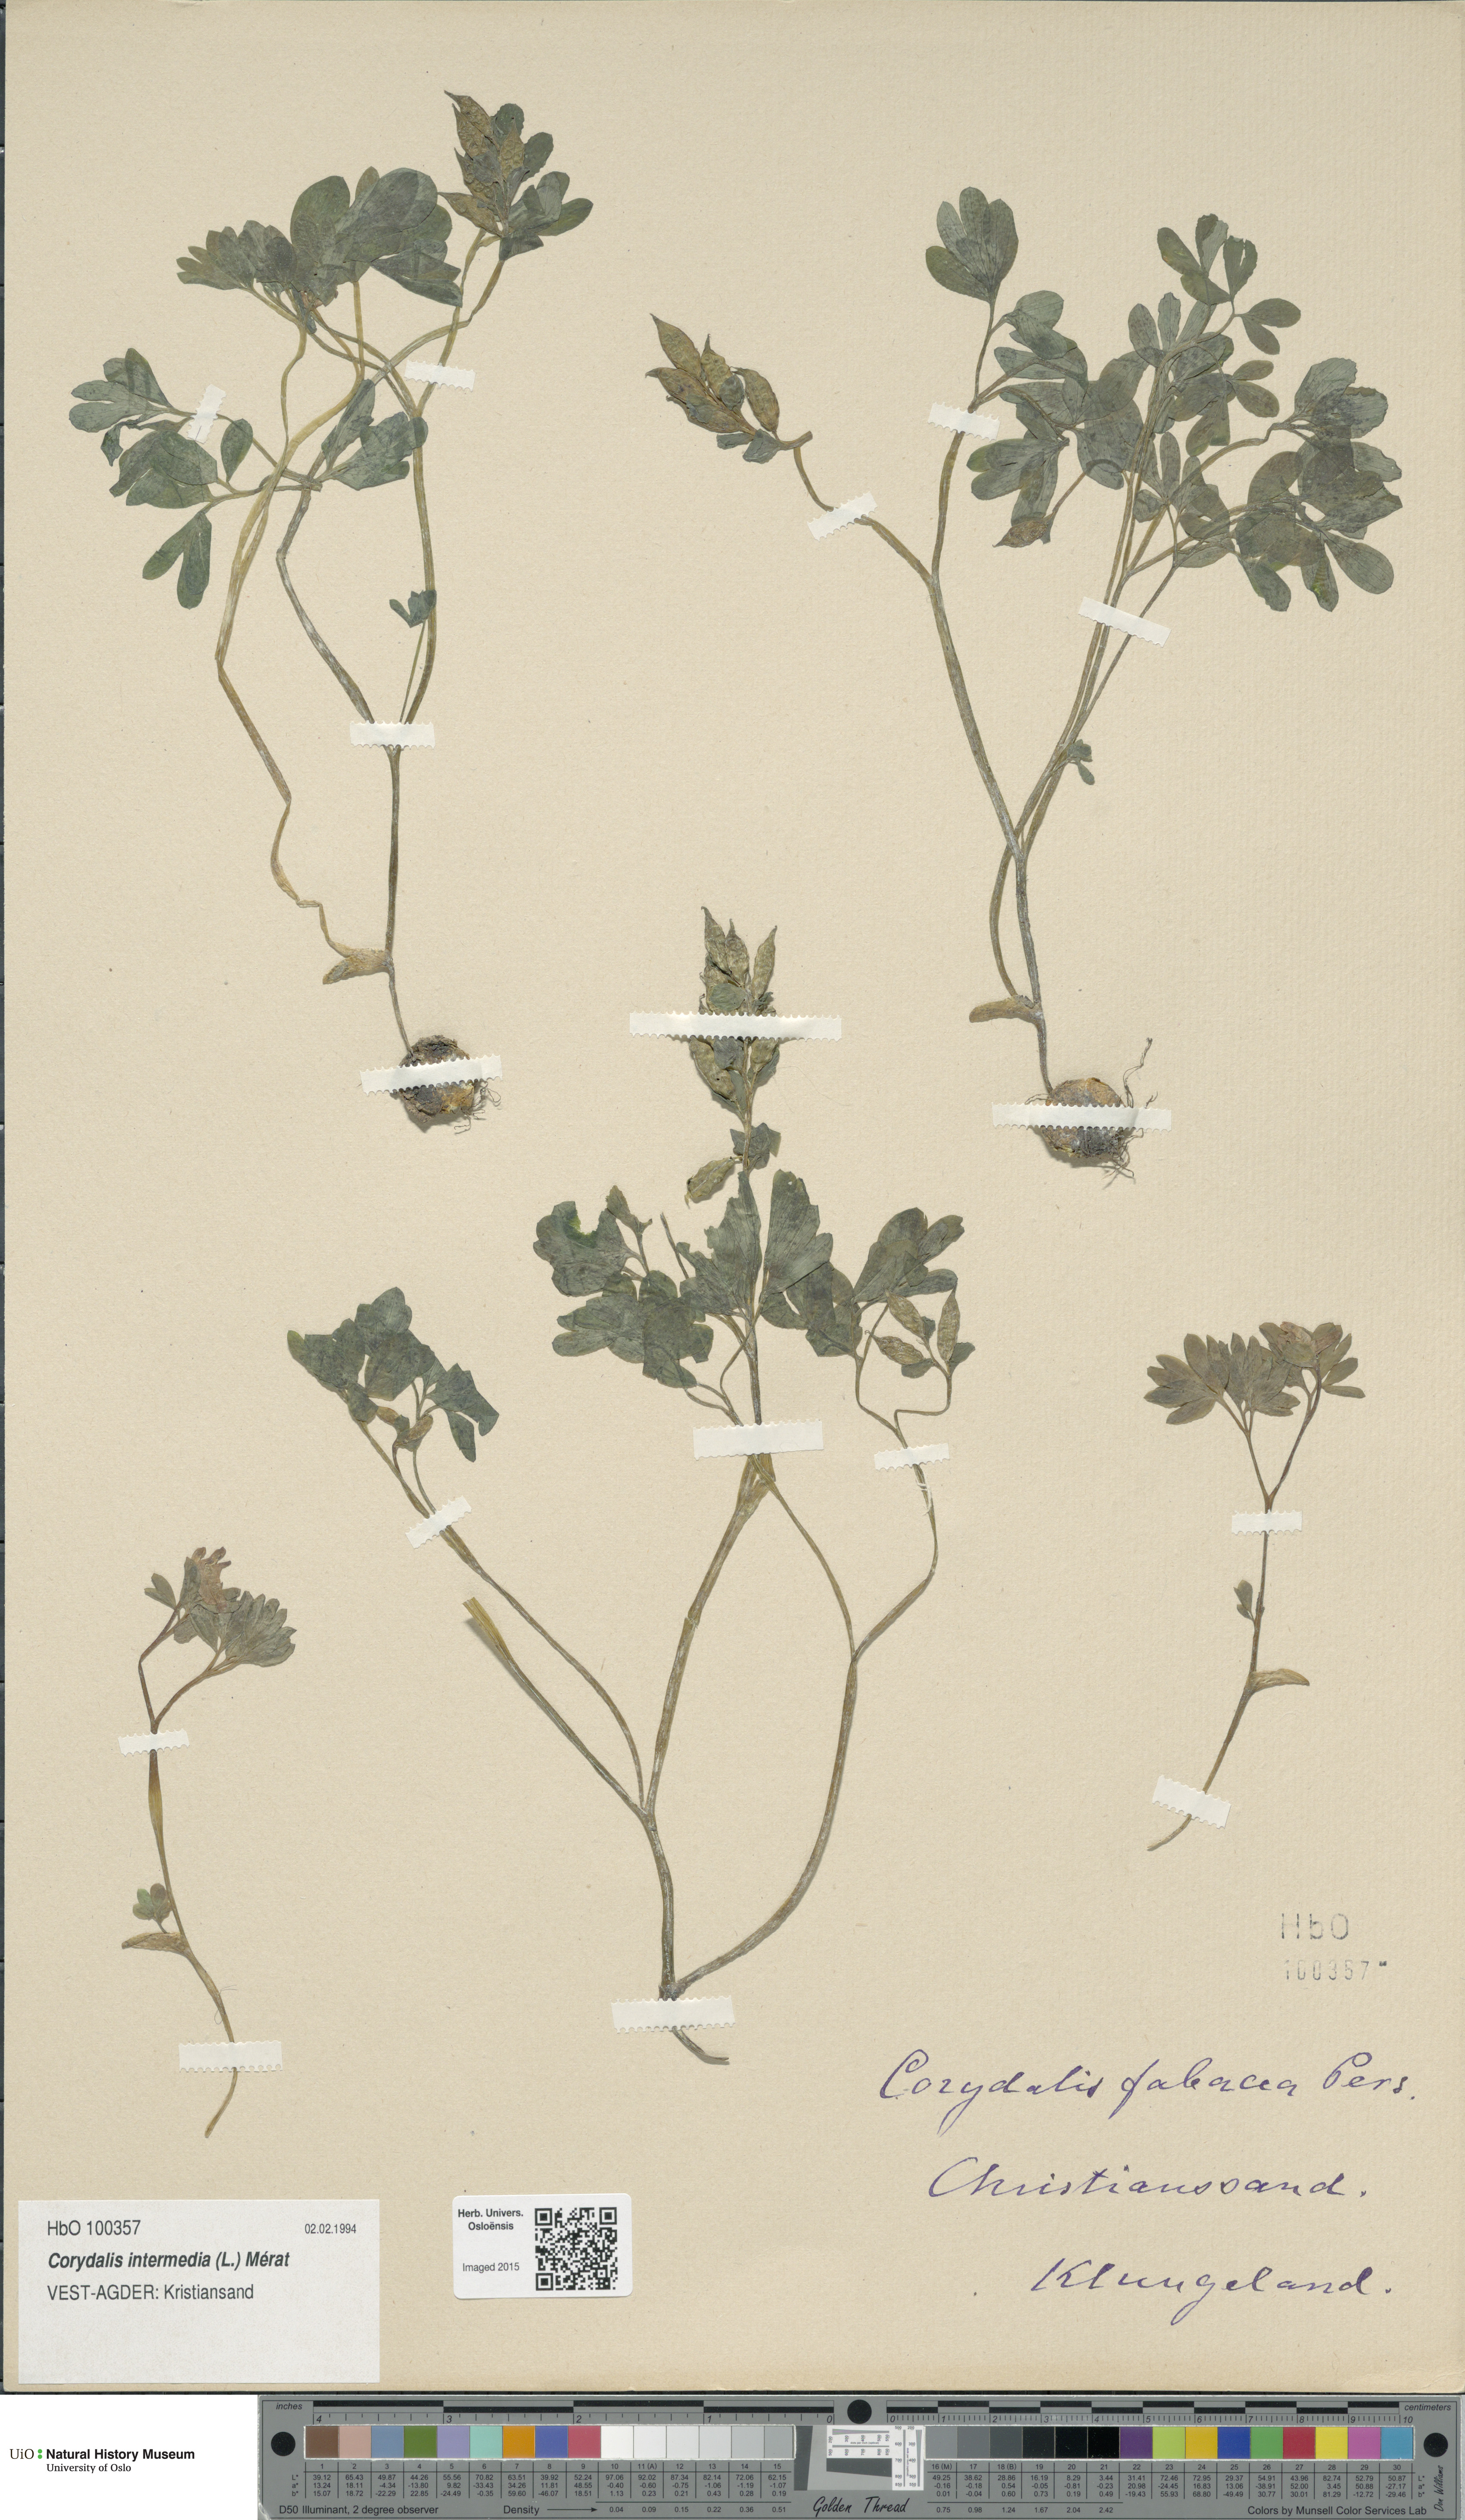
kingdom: Plantae
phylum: Tracheophyta
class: Magnoliopsida
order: Ranunculales
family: Papaveraceae
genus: Corydalis
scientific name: Corydalis intermedia
